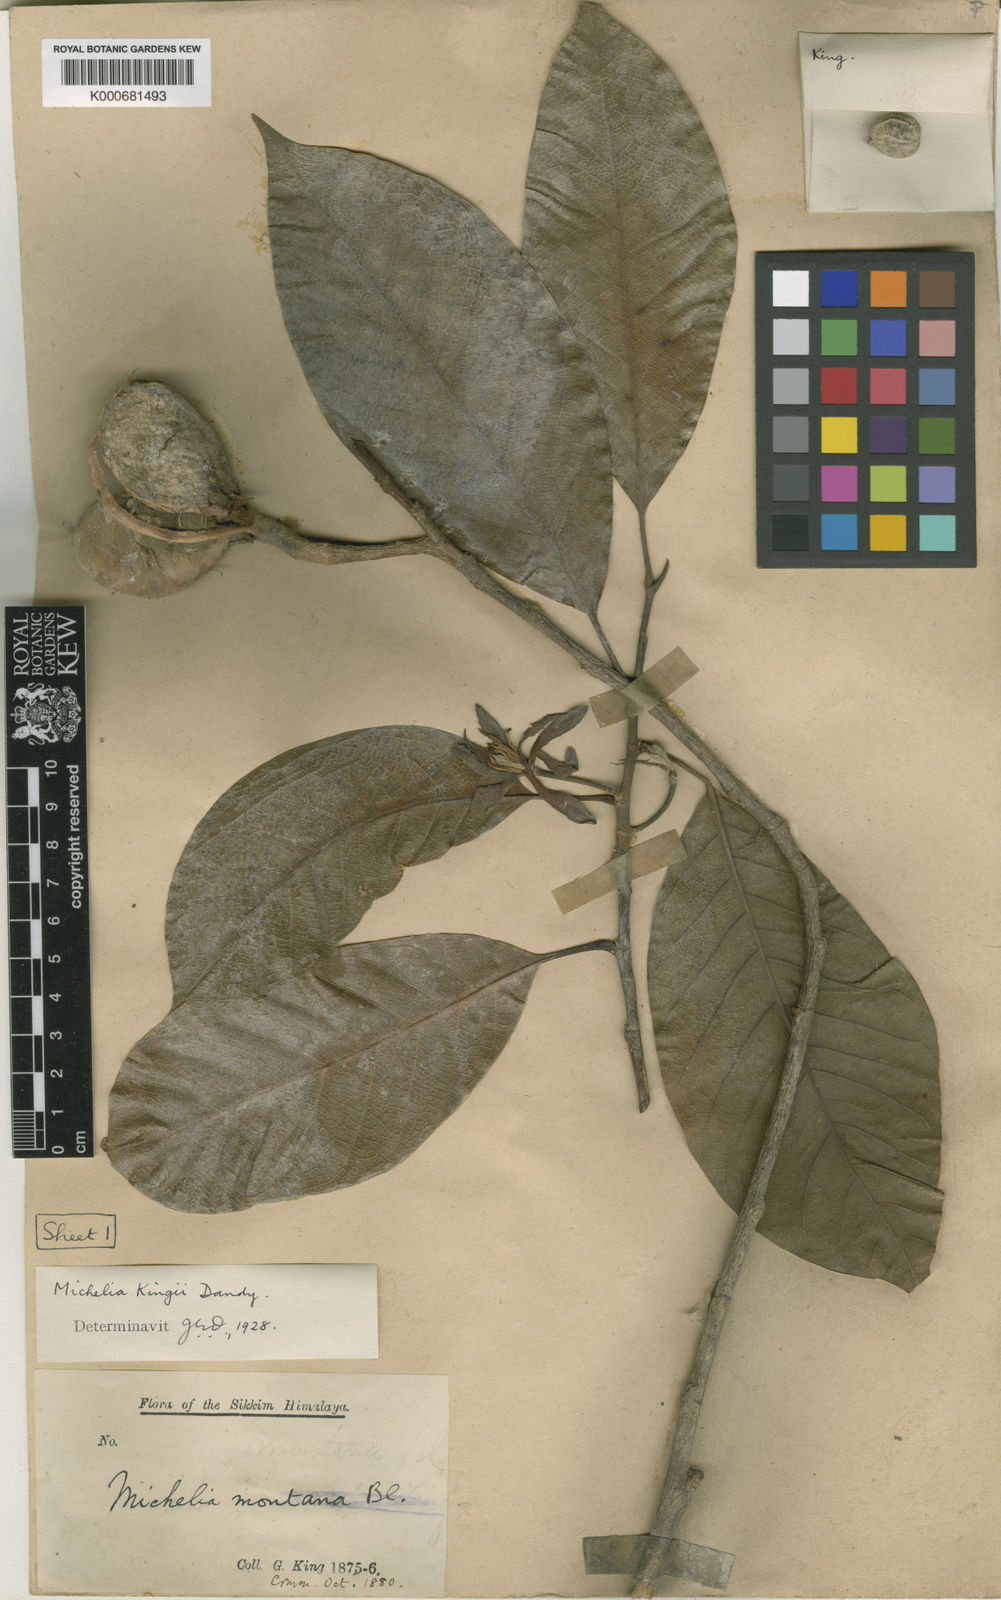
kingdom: Plantae
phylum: Tracheophyta
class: Magnoliopsida
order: Magnoliales
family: Magnoliaceae
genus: Magnolia
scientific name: Magnolia kingii
